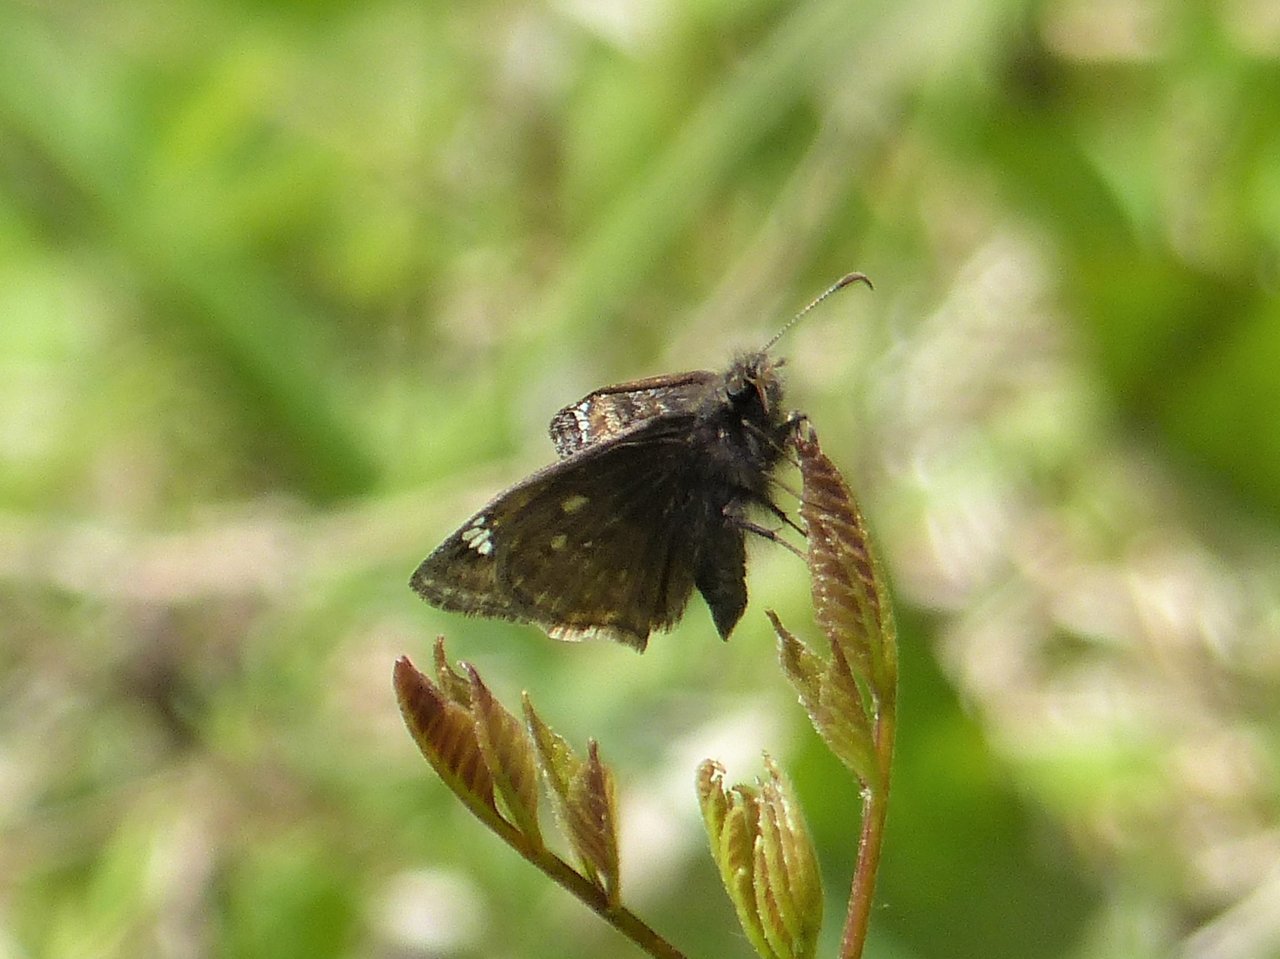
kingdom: Animalia
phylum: Arthropoda
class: Insecta
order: Lepidoptera
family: Hesperiidae
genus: Gesta
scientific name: Gesta
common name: Juvenal's Duskywing
